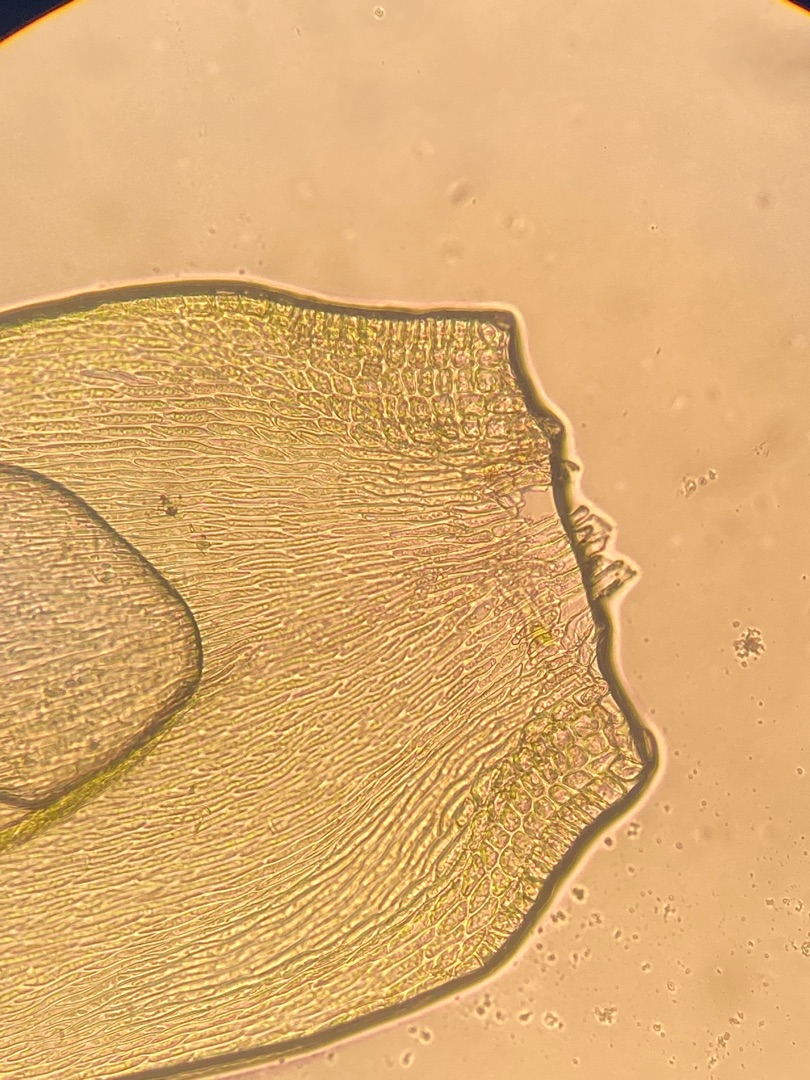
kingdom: Plantae
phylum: Bryophyta
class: Bryopsida
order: Hypnales
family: Hypnaceae
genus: Hypnum
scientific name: Hypnum
